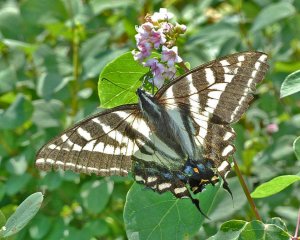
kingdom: Animalia
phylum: Arthropoda
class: Insecta
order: Lepidoptera
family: Papilionidae
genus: Pterourus
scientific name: Pterourus eurymedon
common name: Pale Swallowtail
